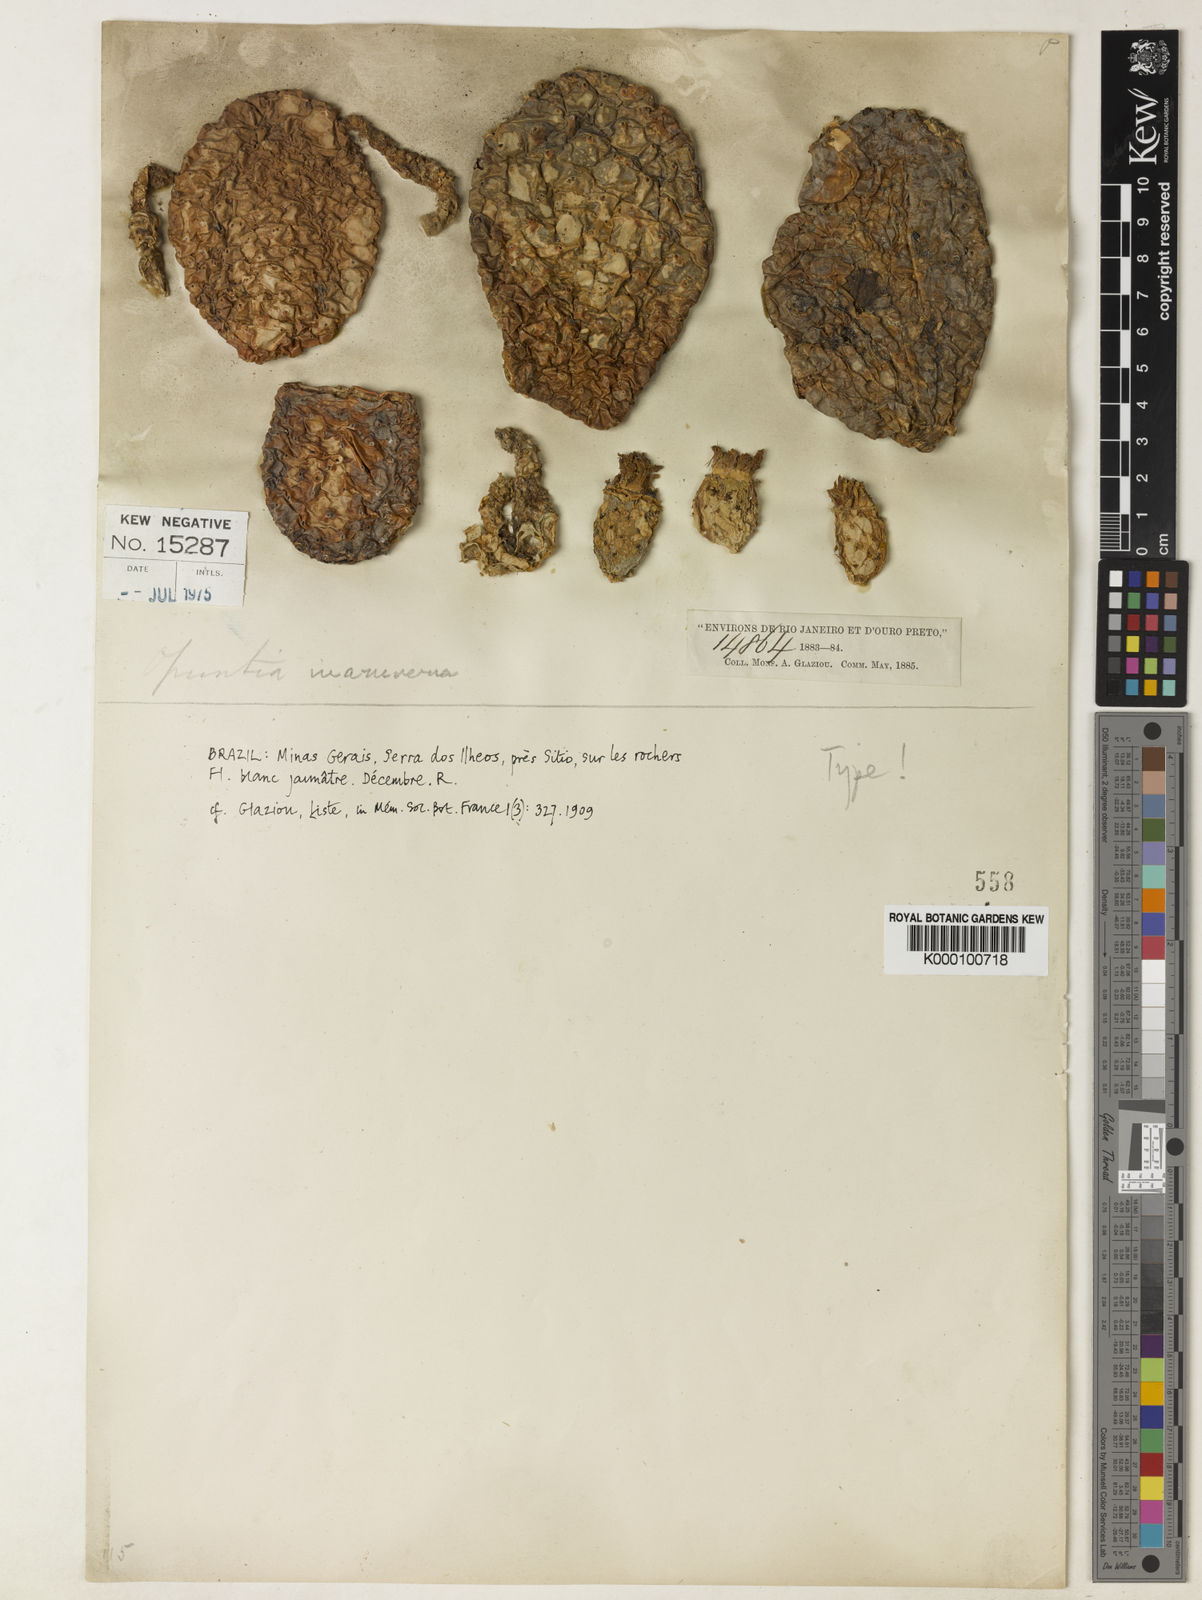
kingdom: Plantae
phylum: Tracheophyta
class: Magnoliopsida
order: Caryophyllales
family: Cactaceae
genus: Tacinga
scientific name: Tacinga inamoena
